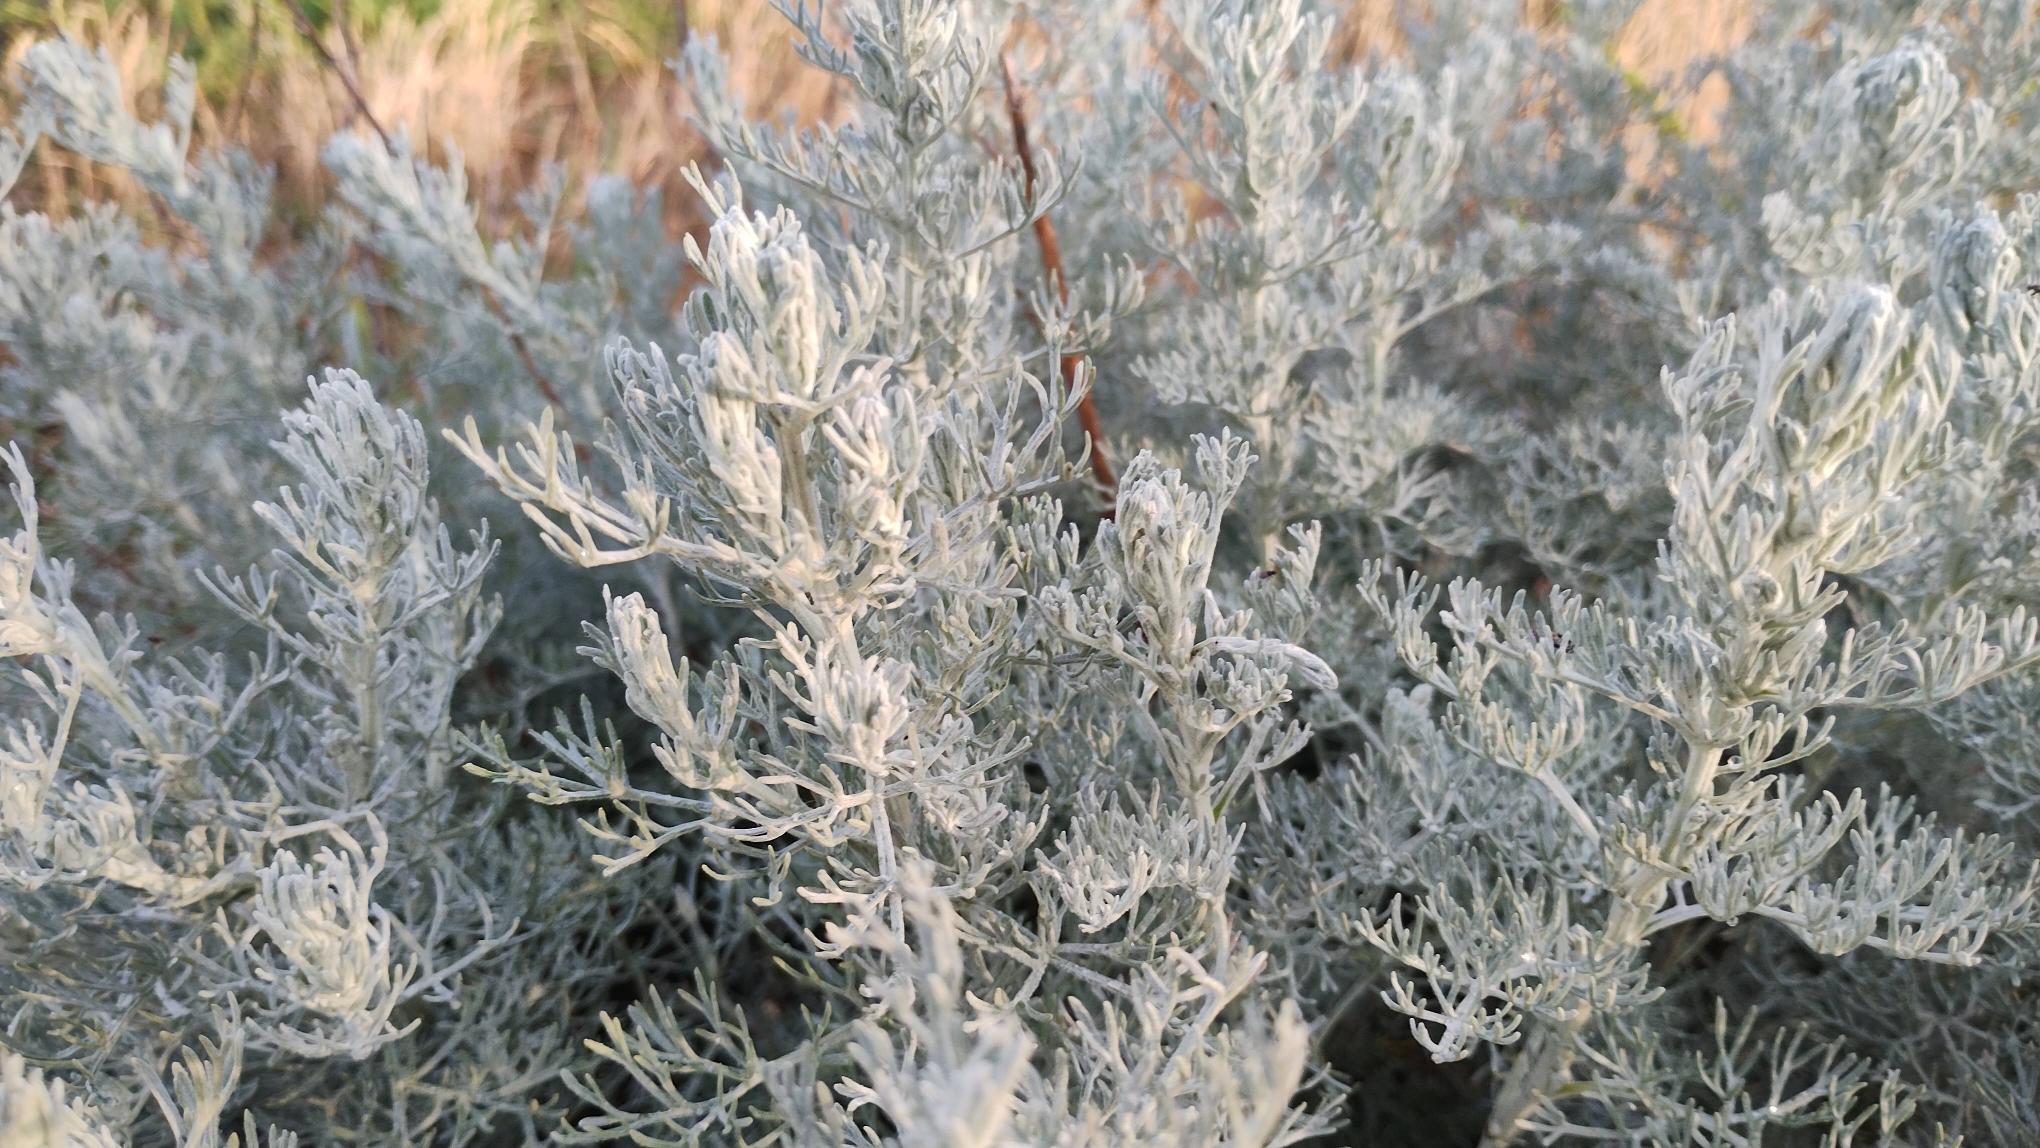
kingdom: Plantae
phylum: Tracheophyta
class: Magnoliopsida
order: Asterales
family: Asteraceae
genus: Artemisia
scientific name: Artemisia maritima
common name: Strandmalurt
